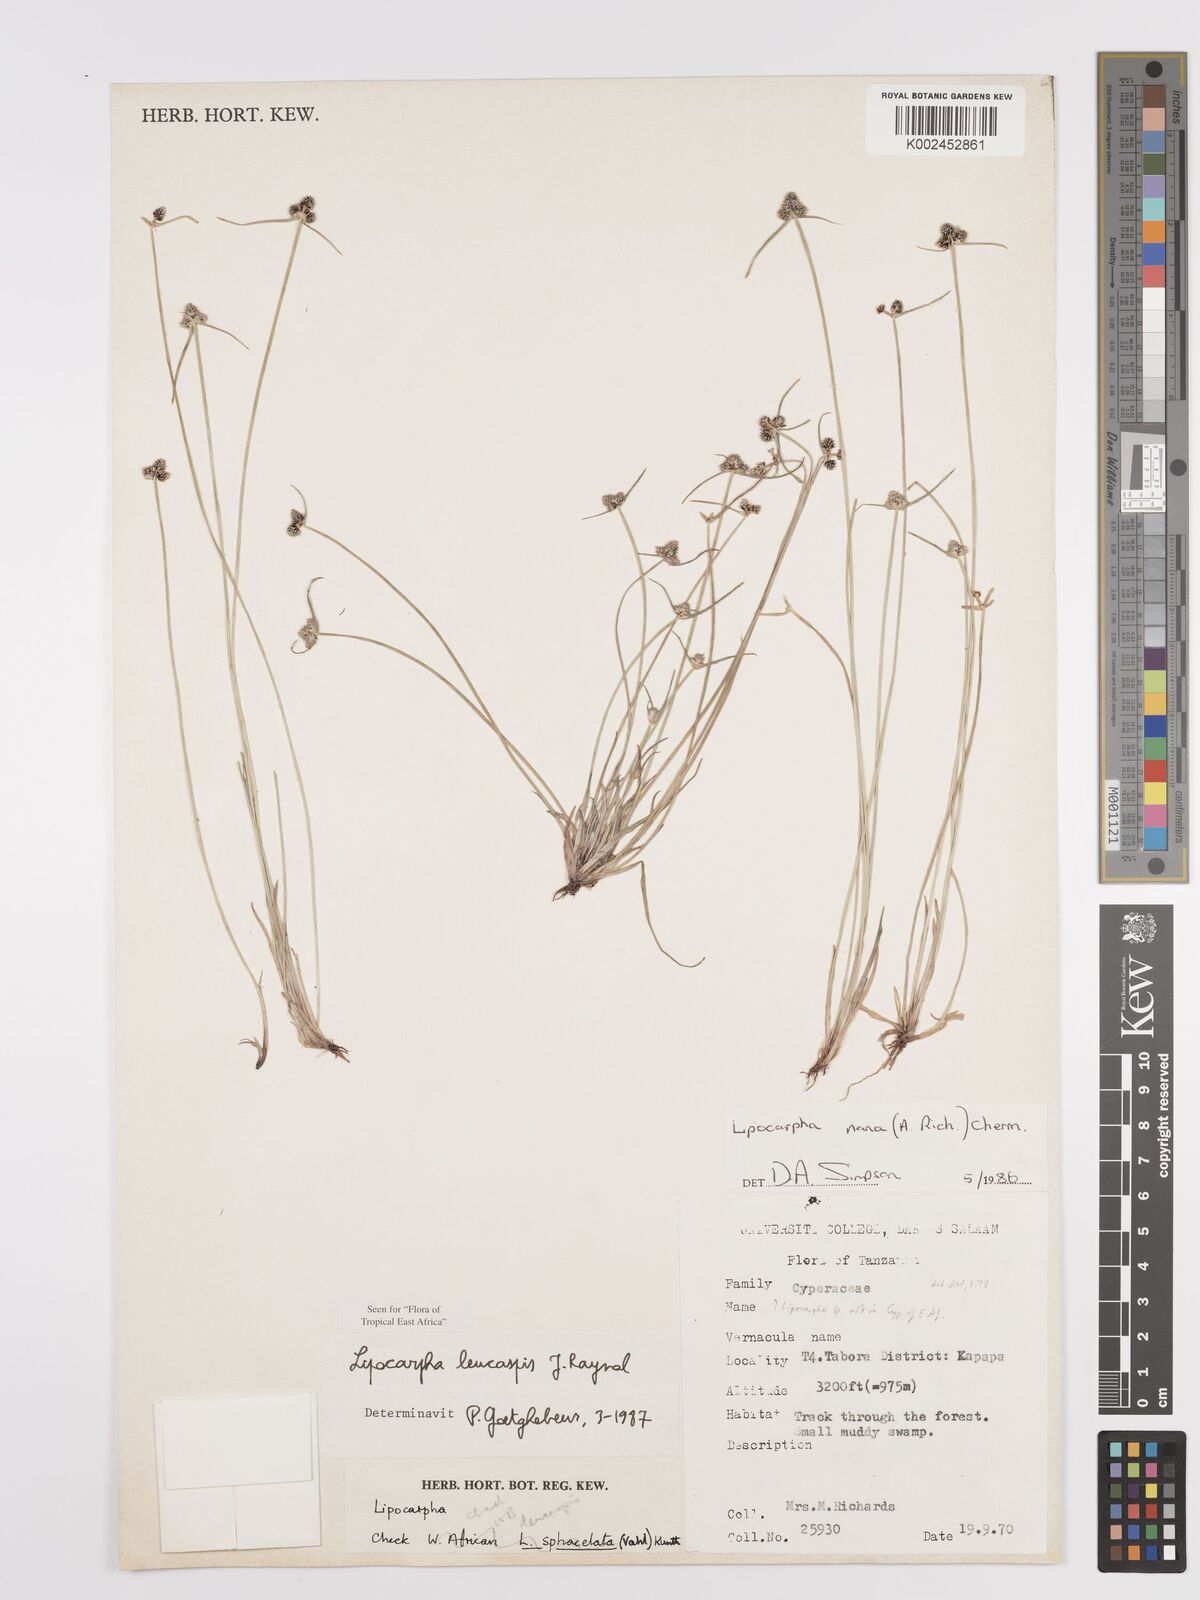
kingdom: Plantae
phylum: Tracheophyta
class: Liliopsida
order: Poales
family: Cyperaceae
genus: Cyperus
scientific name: Cyperus leucaspis
